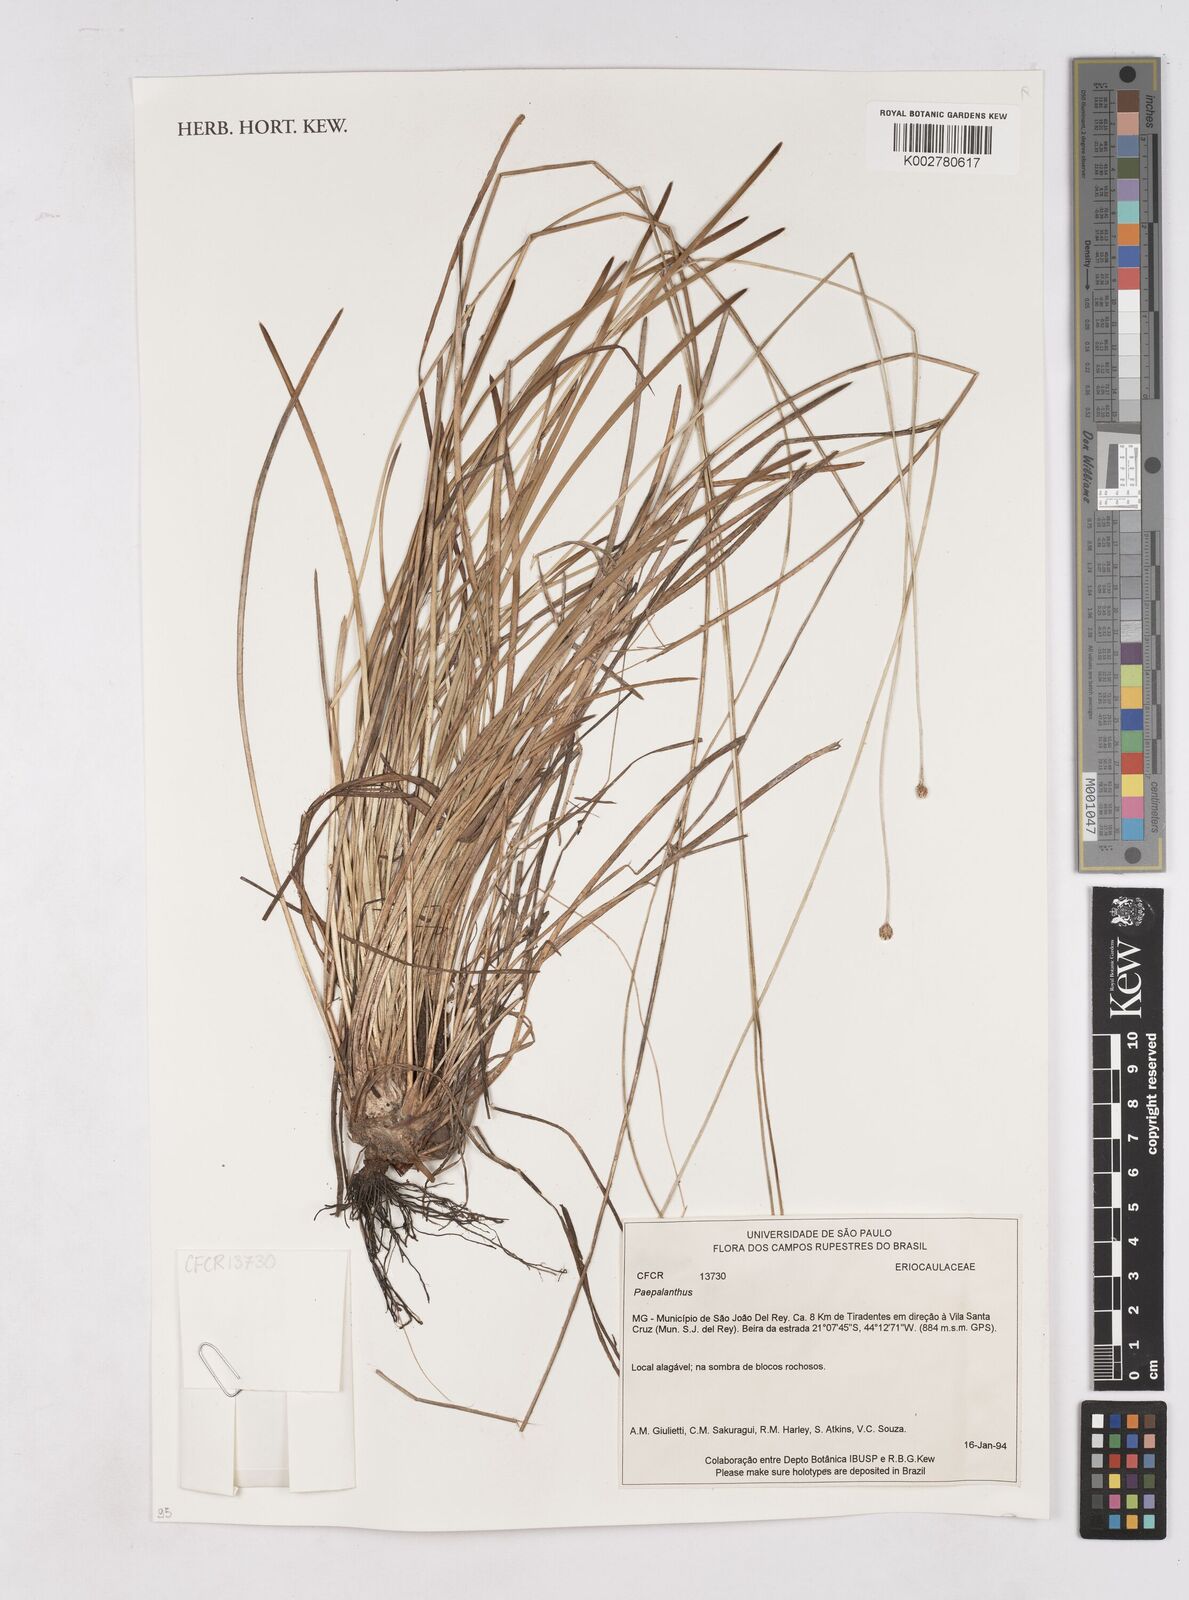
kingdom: Plantae
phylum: Tracheophyta
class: Liliopsida
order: Poales
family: Eriocaulaceae
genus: Paepalanthus
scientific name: Paepalanthus
